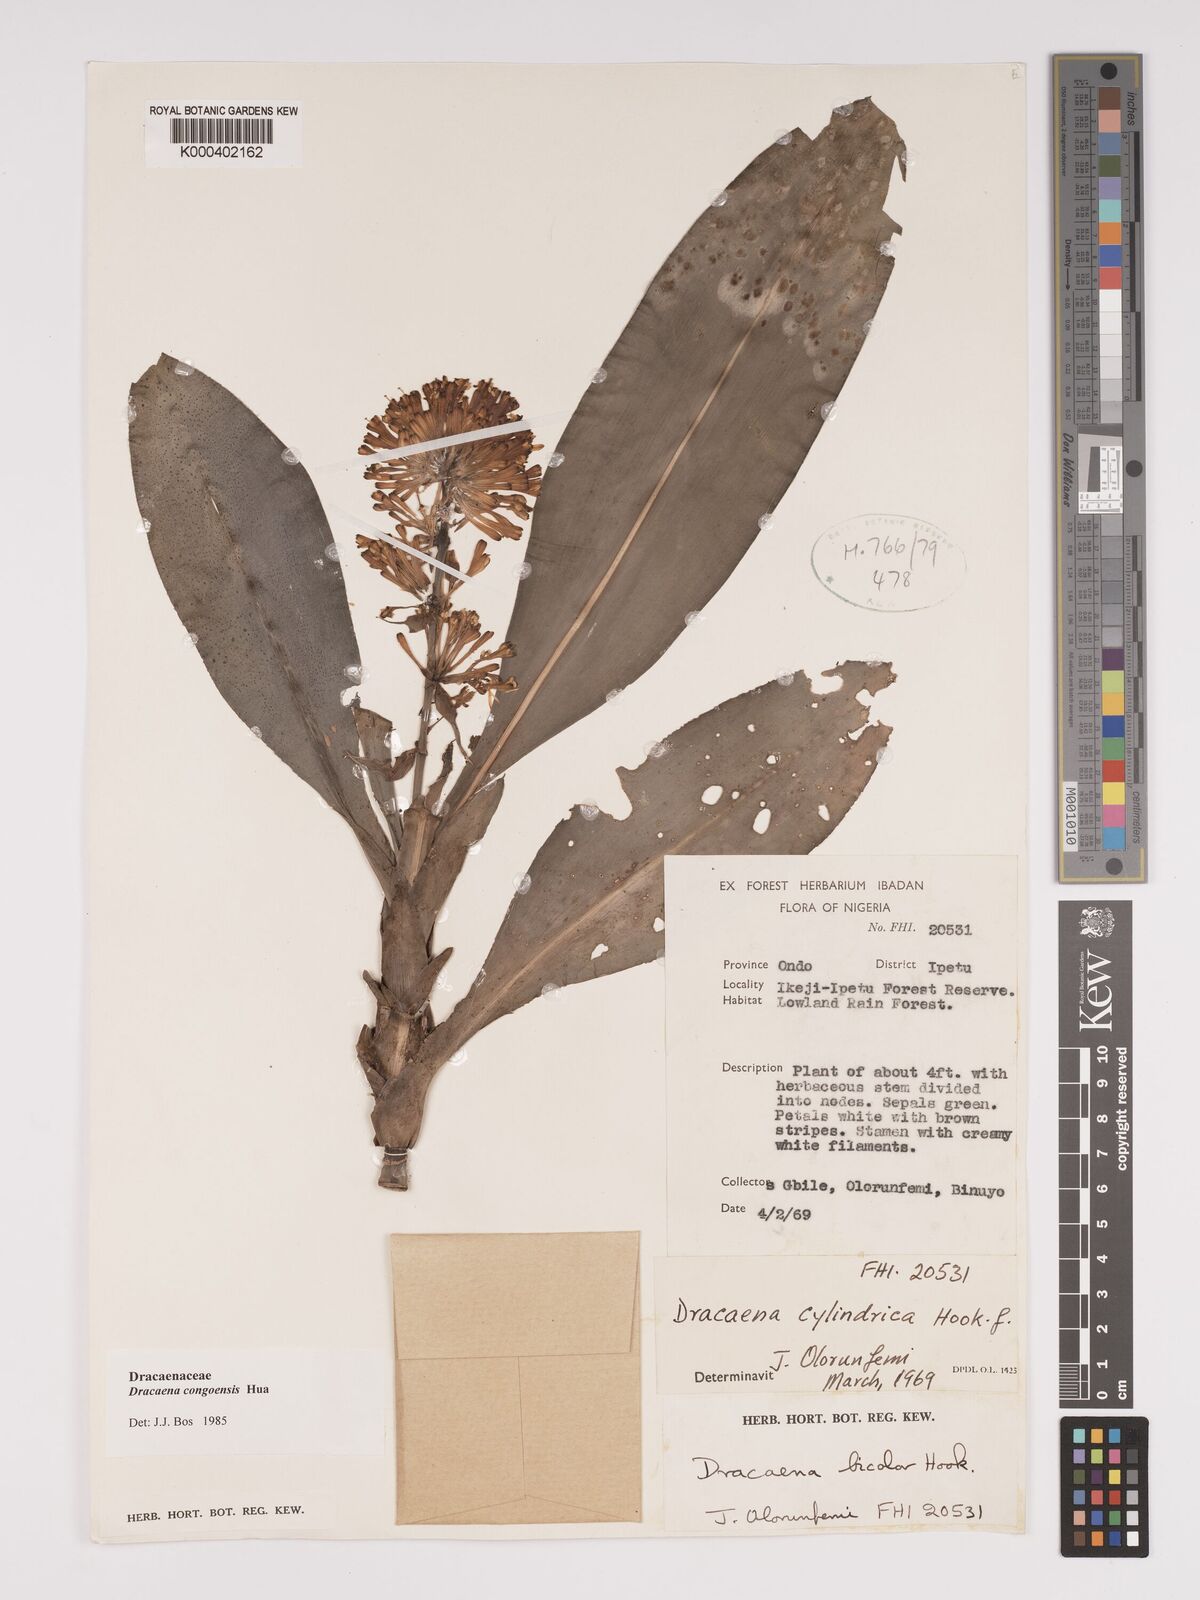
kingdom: Plantae
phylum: Tracheophyta
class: Liliopsida
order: Asparagales
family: Asparagaceae
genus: Dracaena
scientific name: Dracaena congoensis
